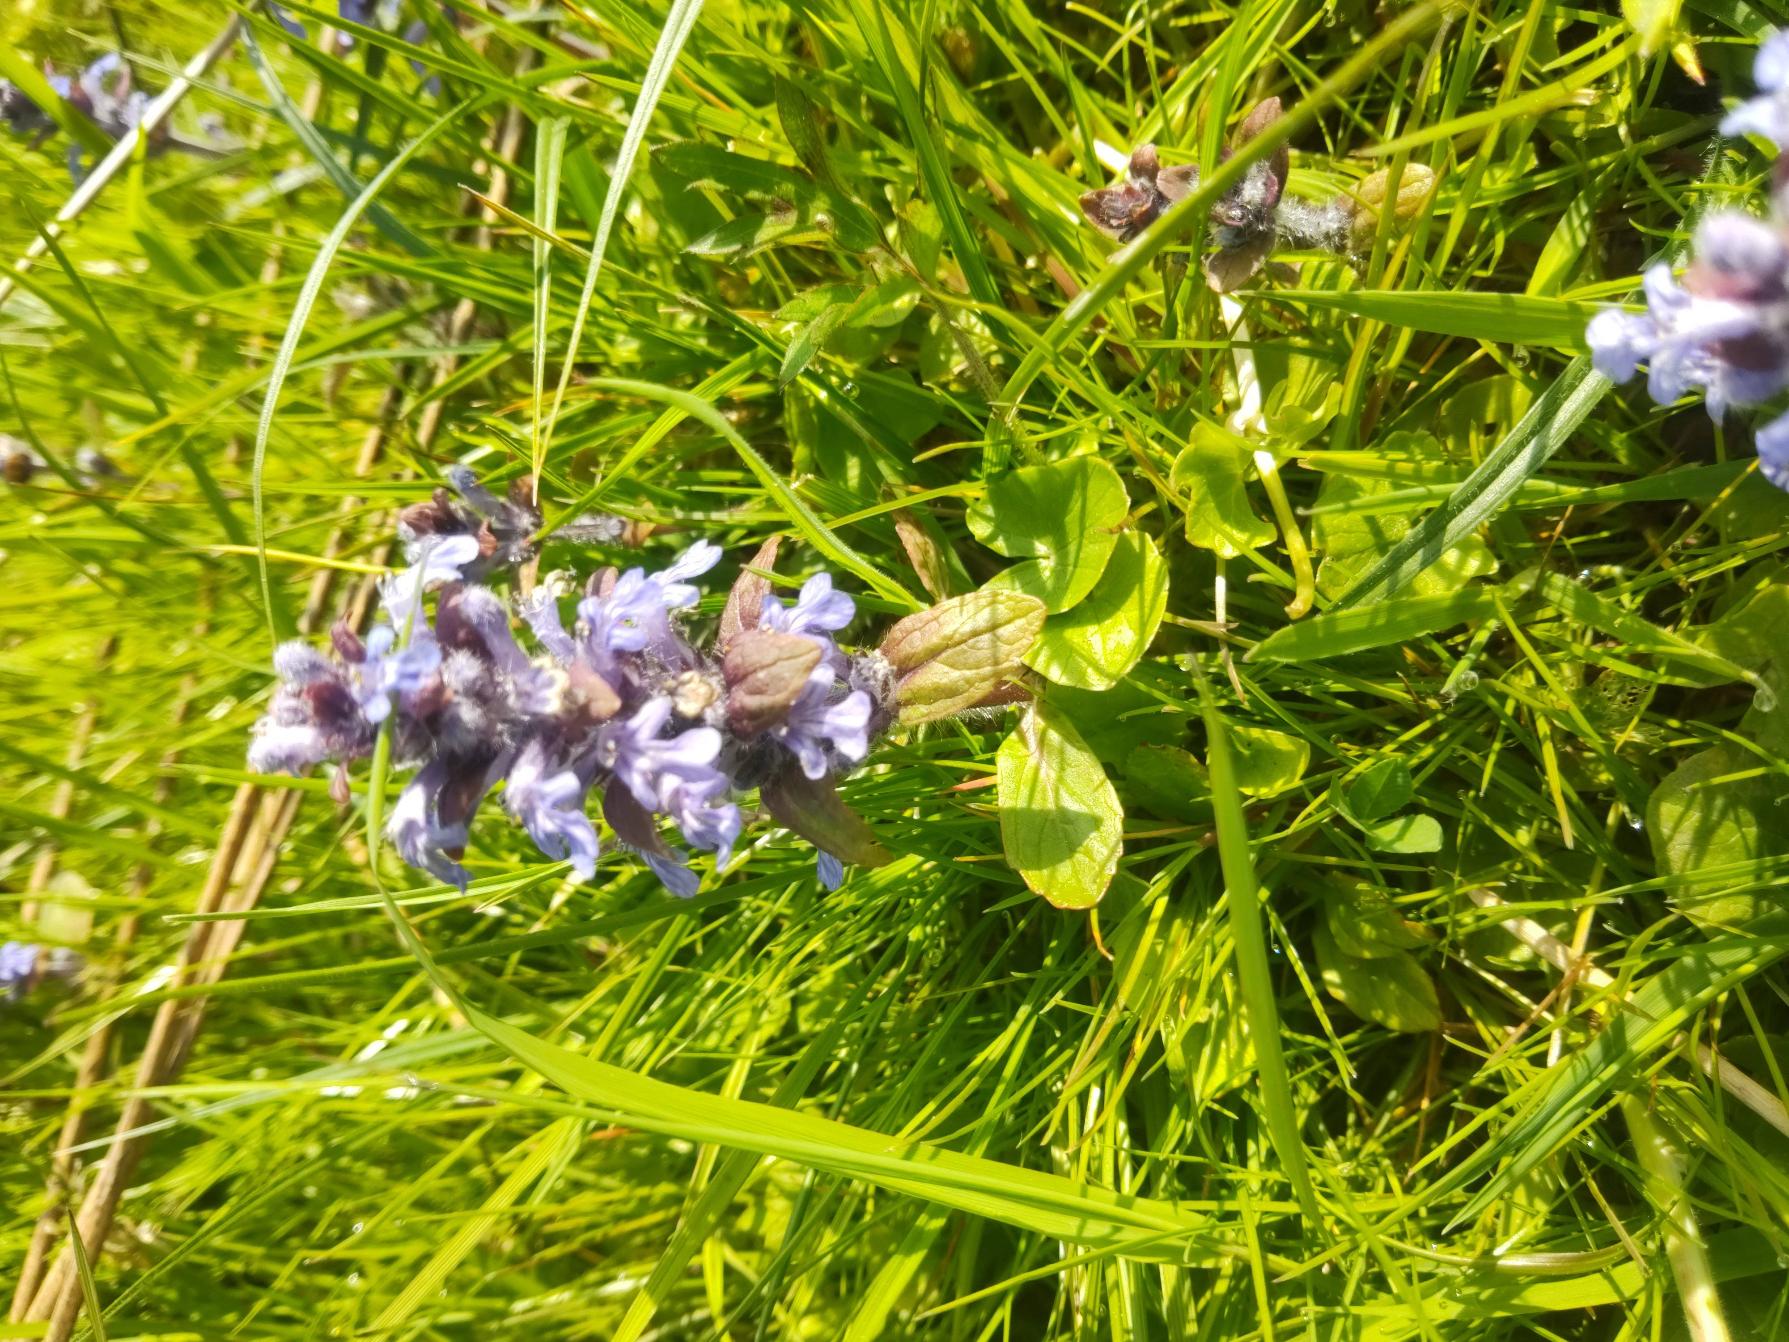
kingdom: Plantae
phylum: Tracheophyta
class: Magnoliopsida
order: Lamiales
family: Lamiaceae
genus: Ajuga
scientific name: Ajuga reptans
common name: Krybende læbeløs
